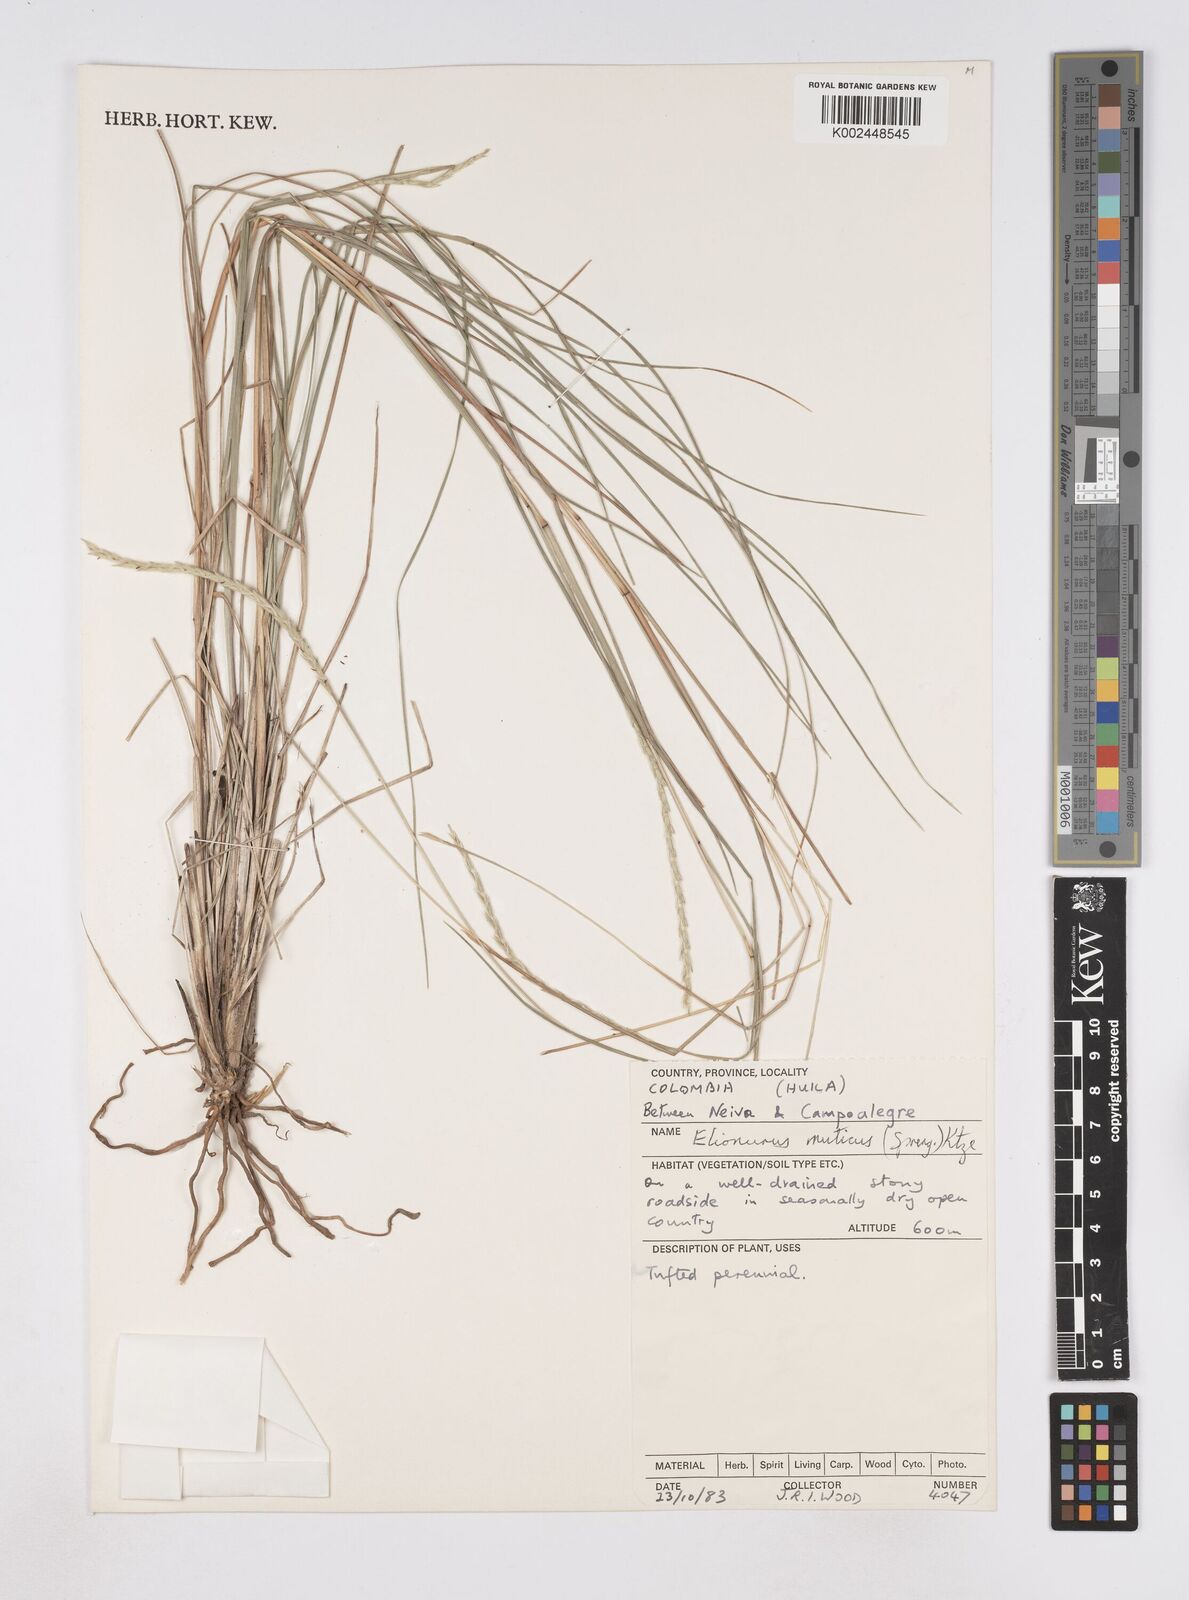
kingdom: Plantae
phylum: Tracheophyta
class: Liliopsida
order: Poales
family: Poaceae
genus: Elionurus
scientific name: Elionurus muticus
